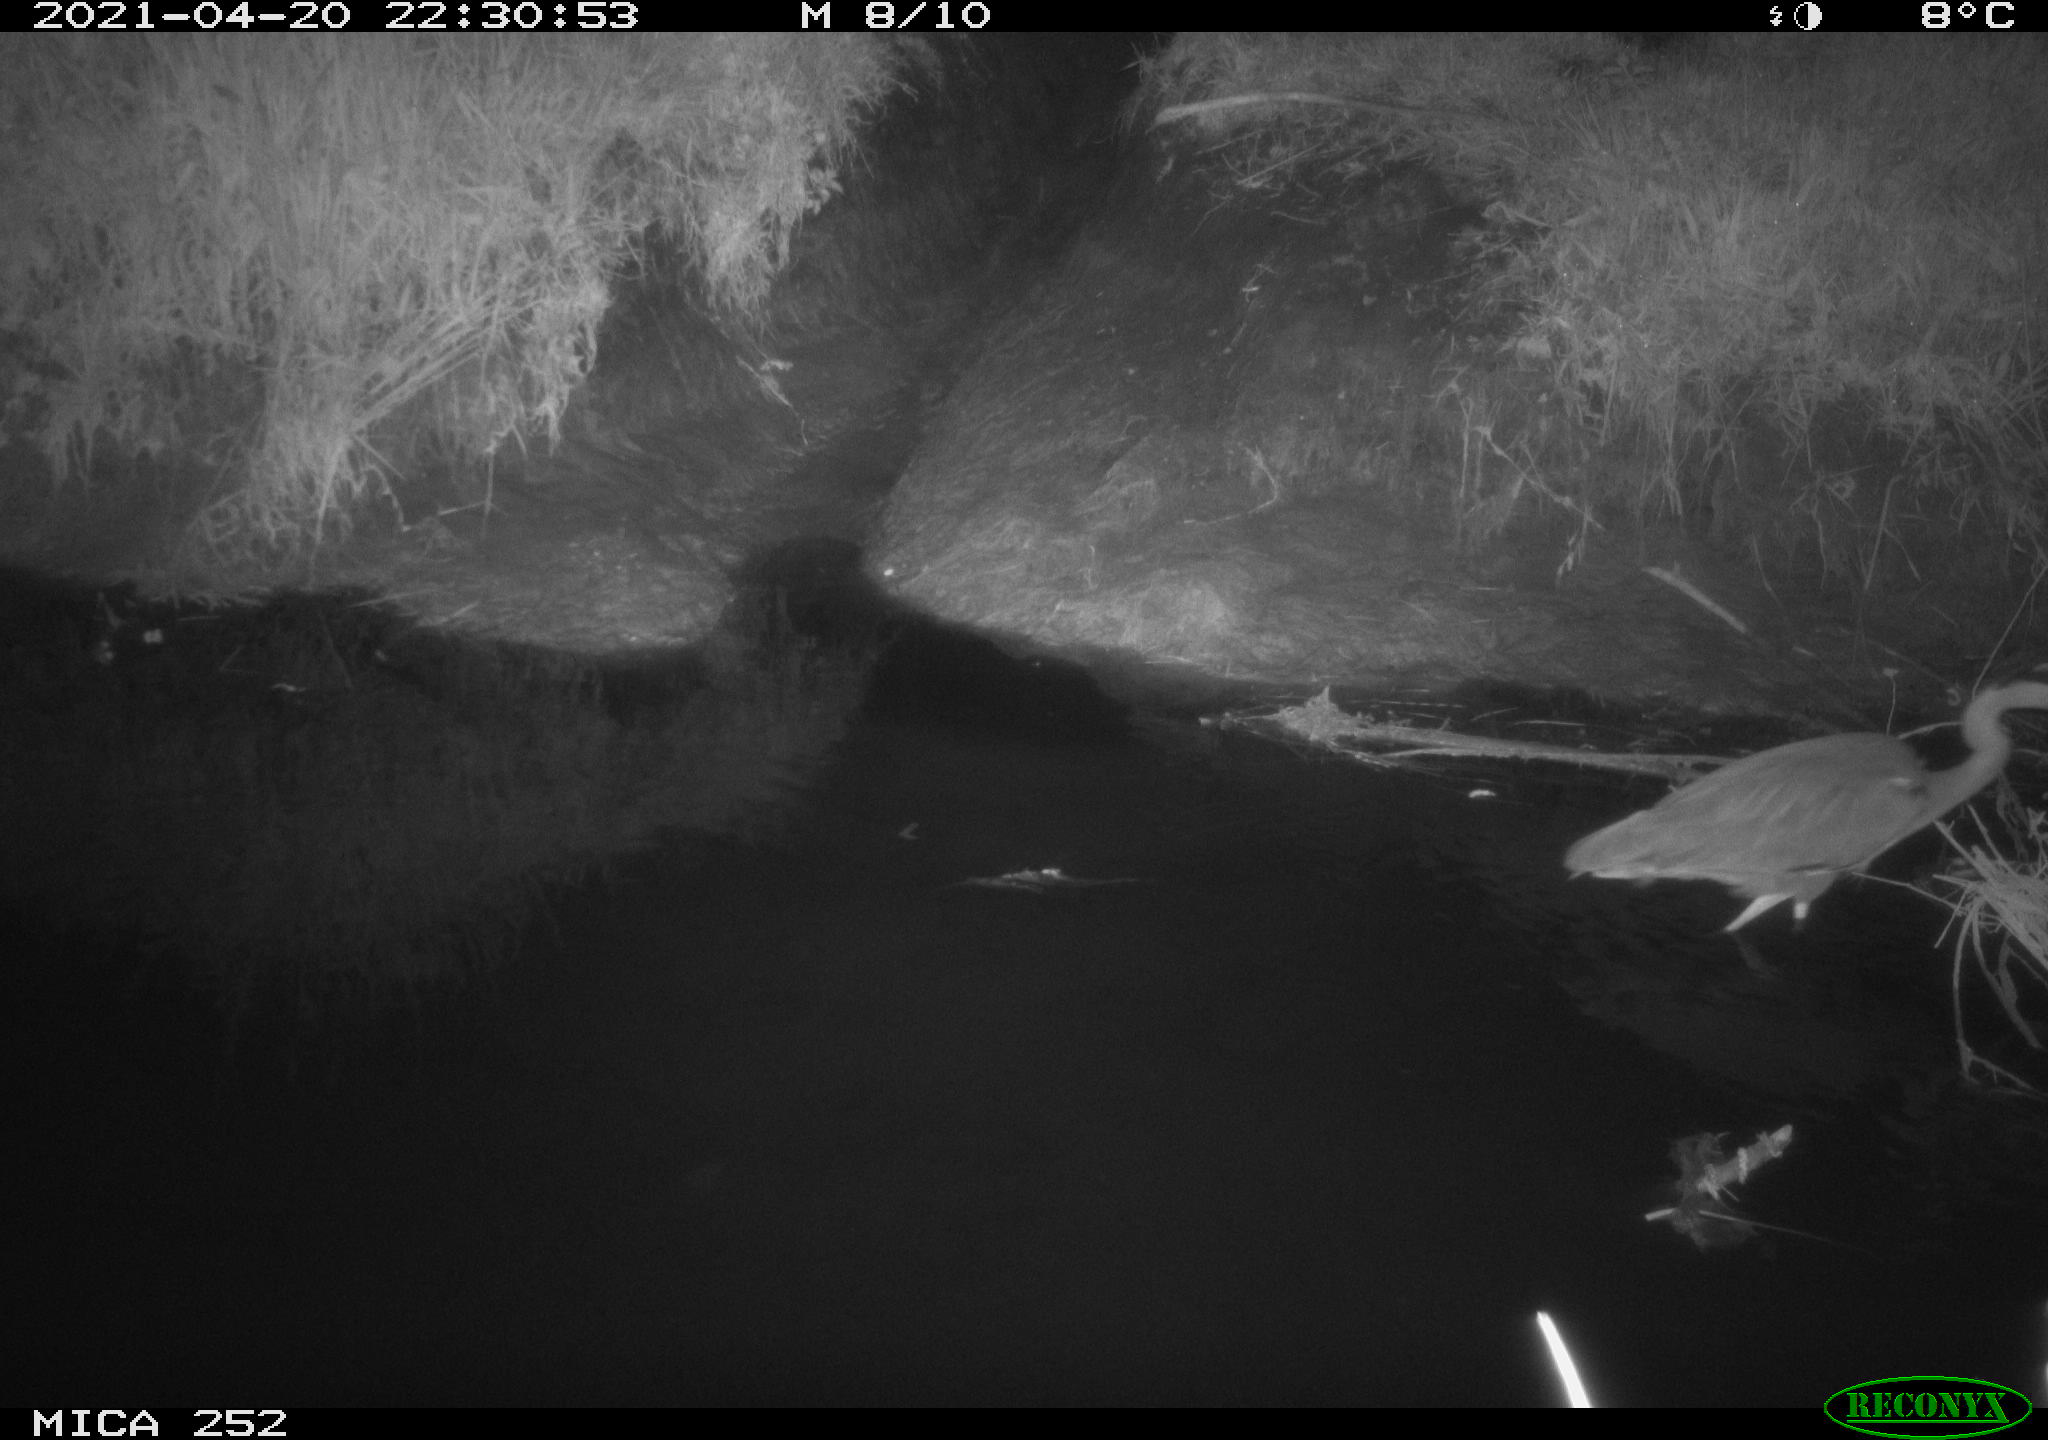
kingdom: Animalia
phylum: Chordata
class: Aves
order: Pelecaniformes
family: Ardeidae
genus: Ardea
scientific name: Ardea
